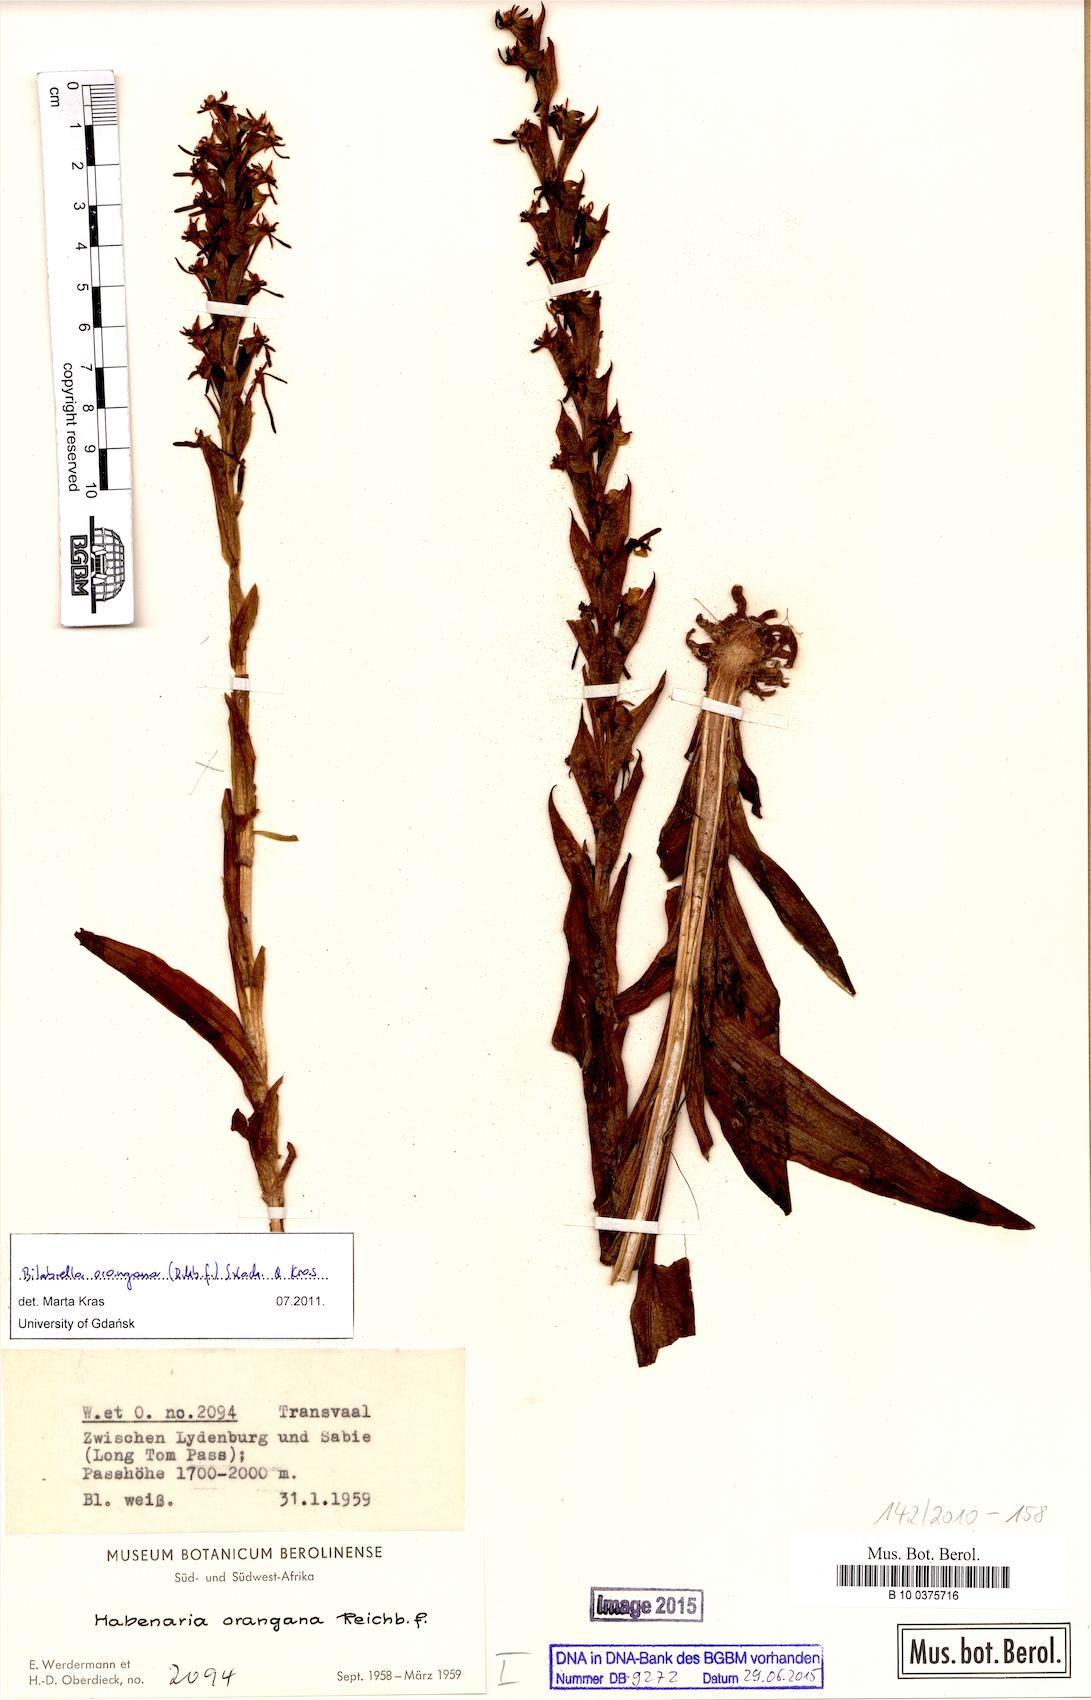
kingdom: Plantae
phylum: Tracheophyta
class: Liliopsida
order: Asparagales
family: Orchidaceae
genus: Habenaria
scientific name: Habenaria dives
